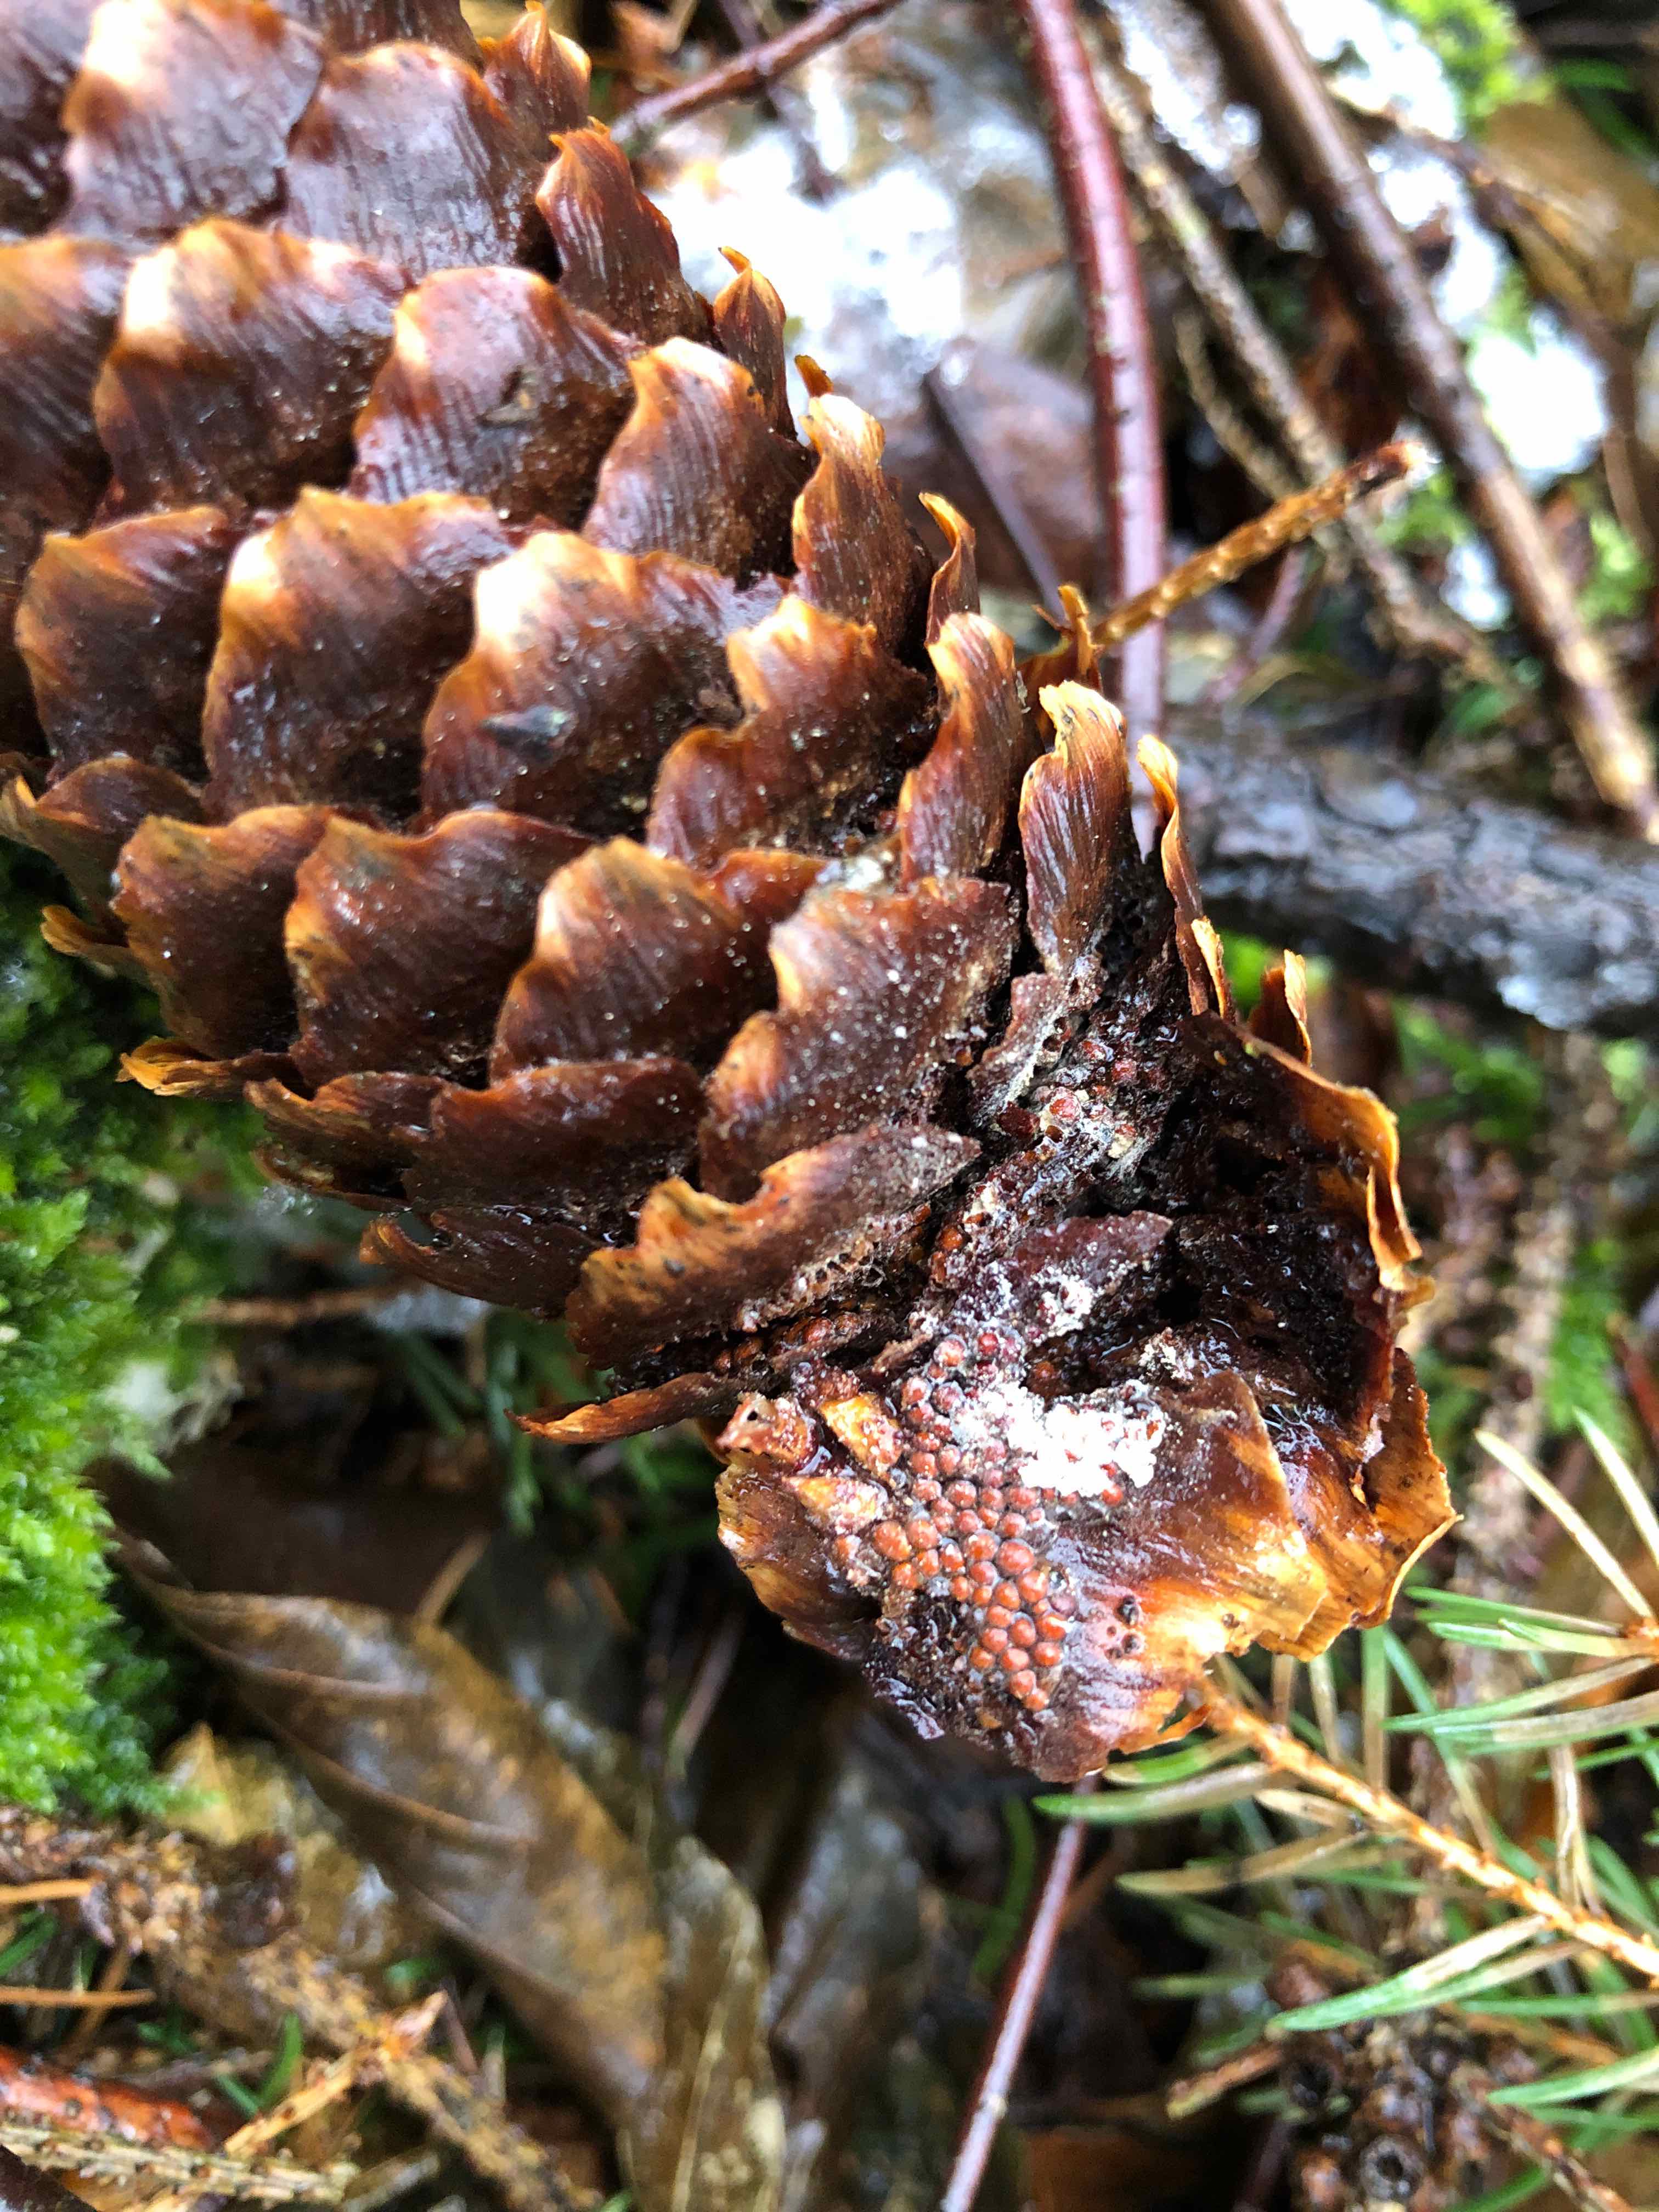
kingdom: Fungi
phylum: Basidiomycota
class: Pucciniomycetes
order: Pucciniales
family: Pucciniastraceae
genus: Thekopsora
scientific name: Thekopsora areolata
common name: grankogle-nålerust
